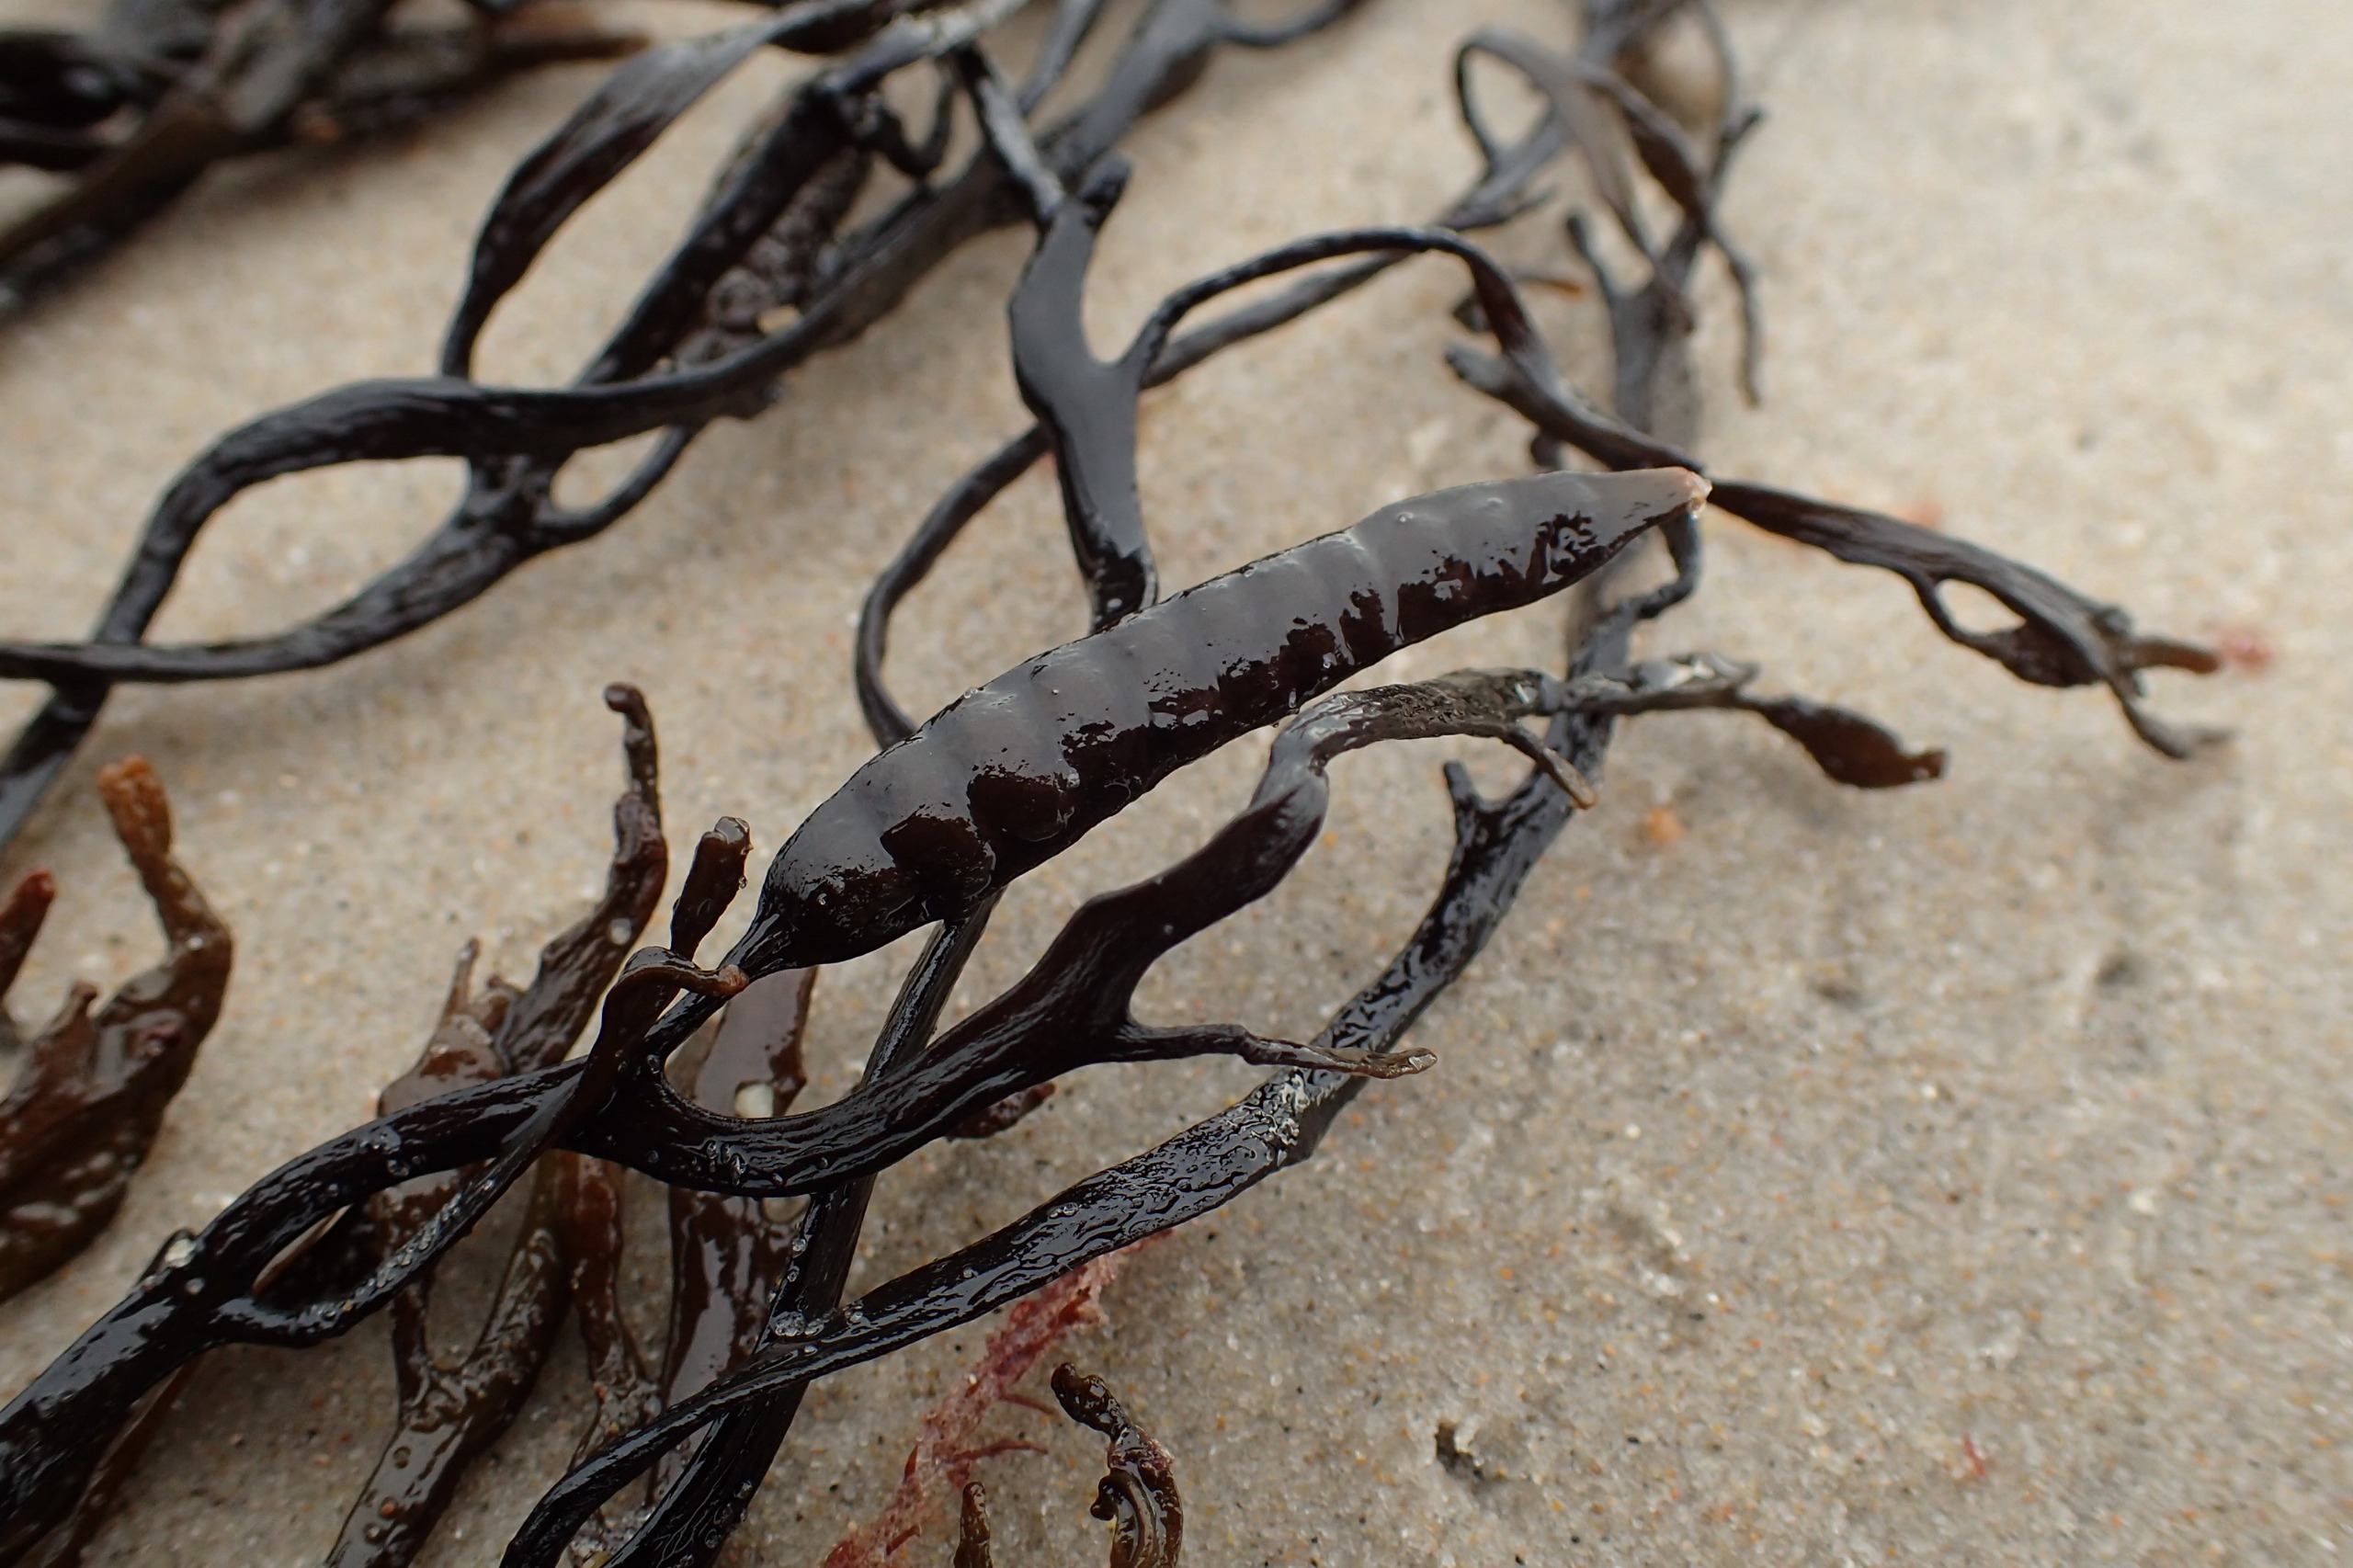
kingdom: Chromista
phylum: Ochrophyta
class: Phaeophyceae
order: Fucales
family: Sargassaceae
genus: Halidrys
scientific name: Halidrys siliquosa
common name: Skulpetang
